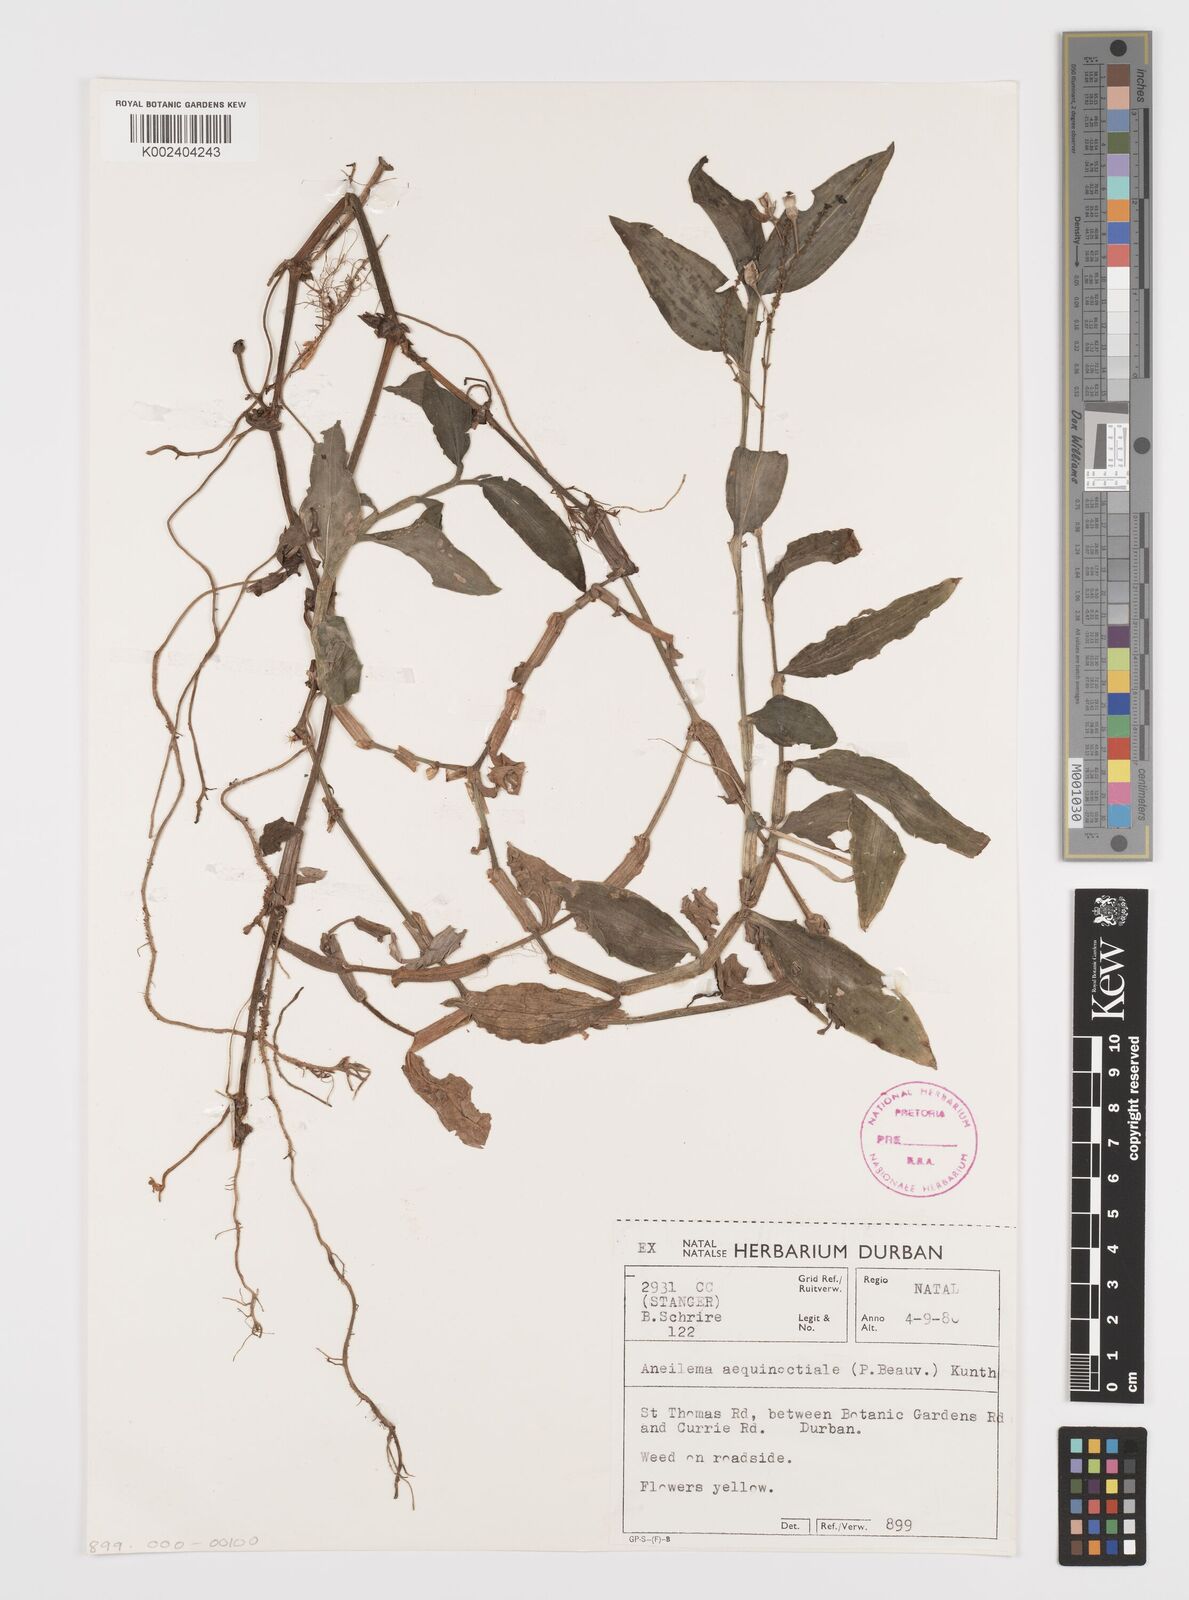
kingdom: Plantae
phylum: Tracheophyta
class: Liliopsida
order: Commelinales
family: Commelinaceae
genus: Aneilema
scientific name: Aneilema aequinoctiale
